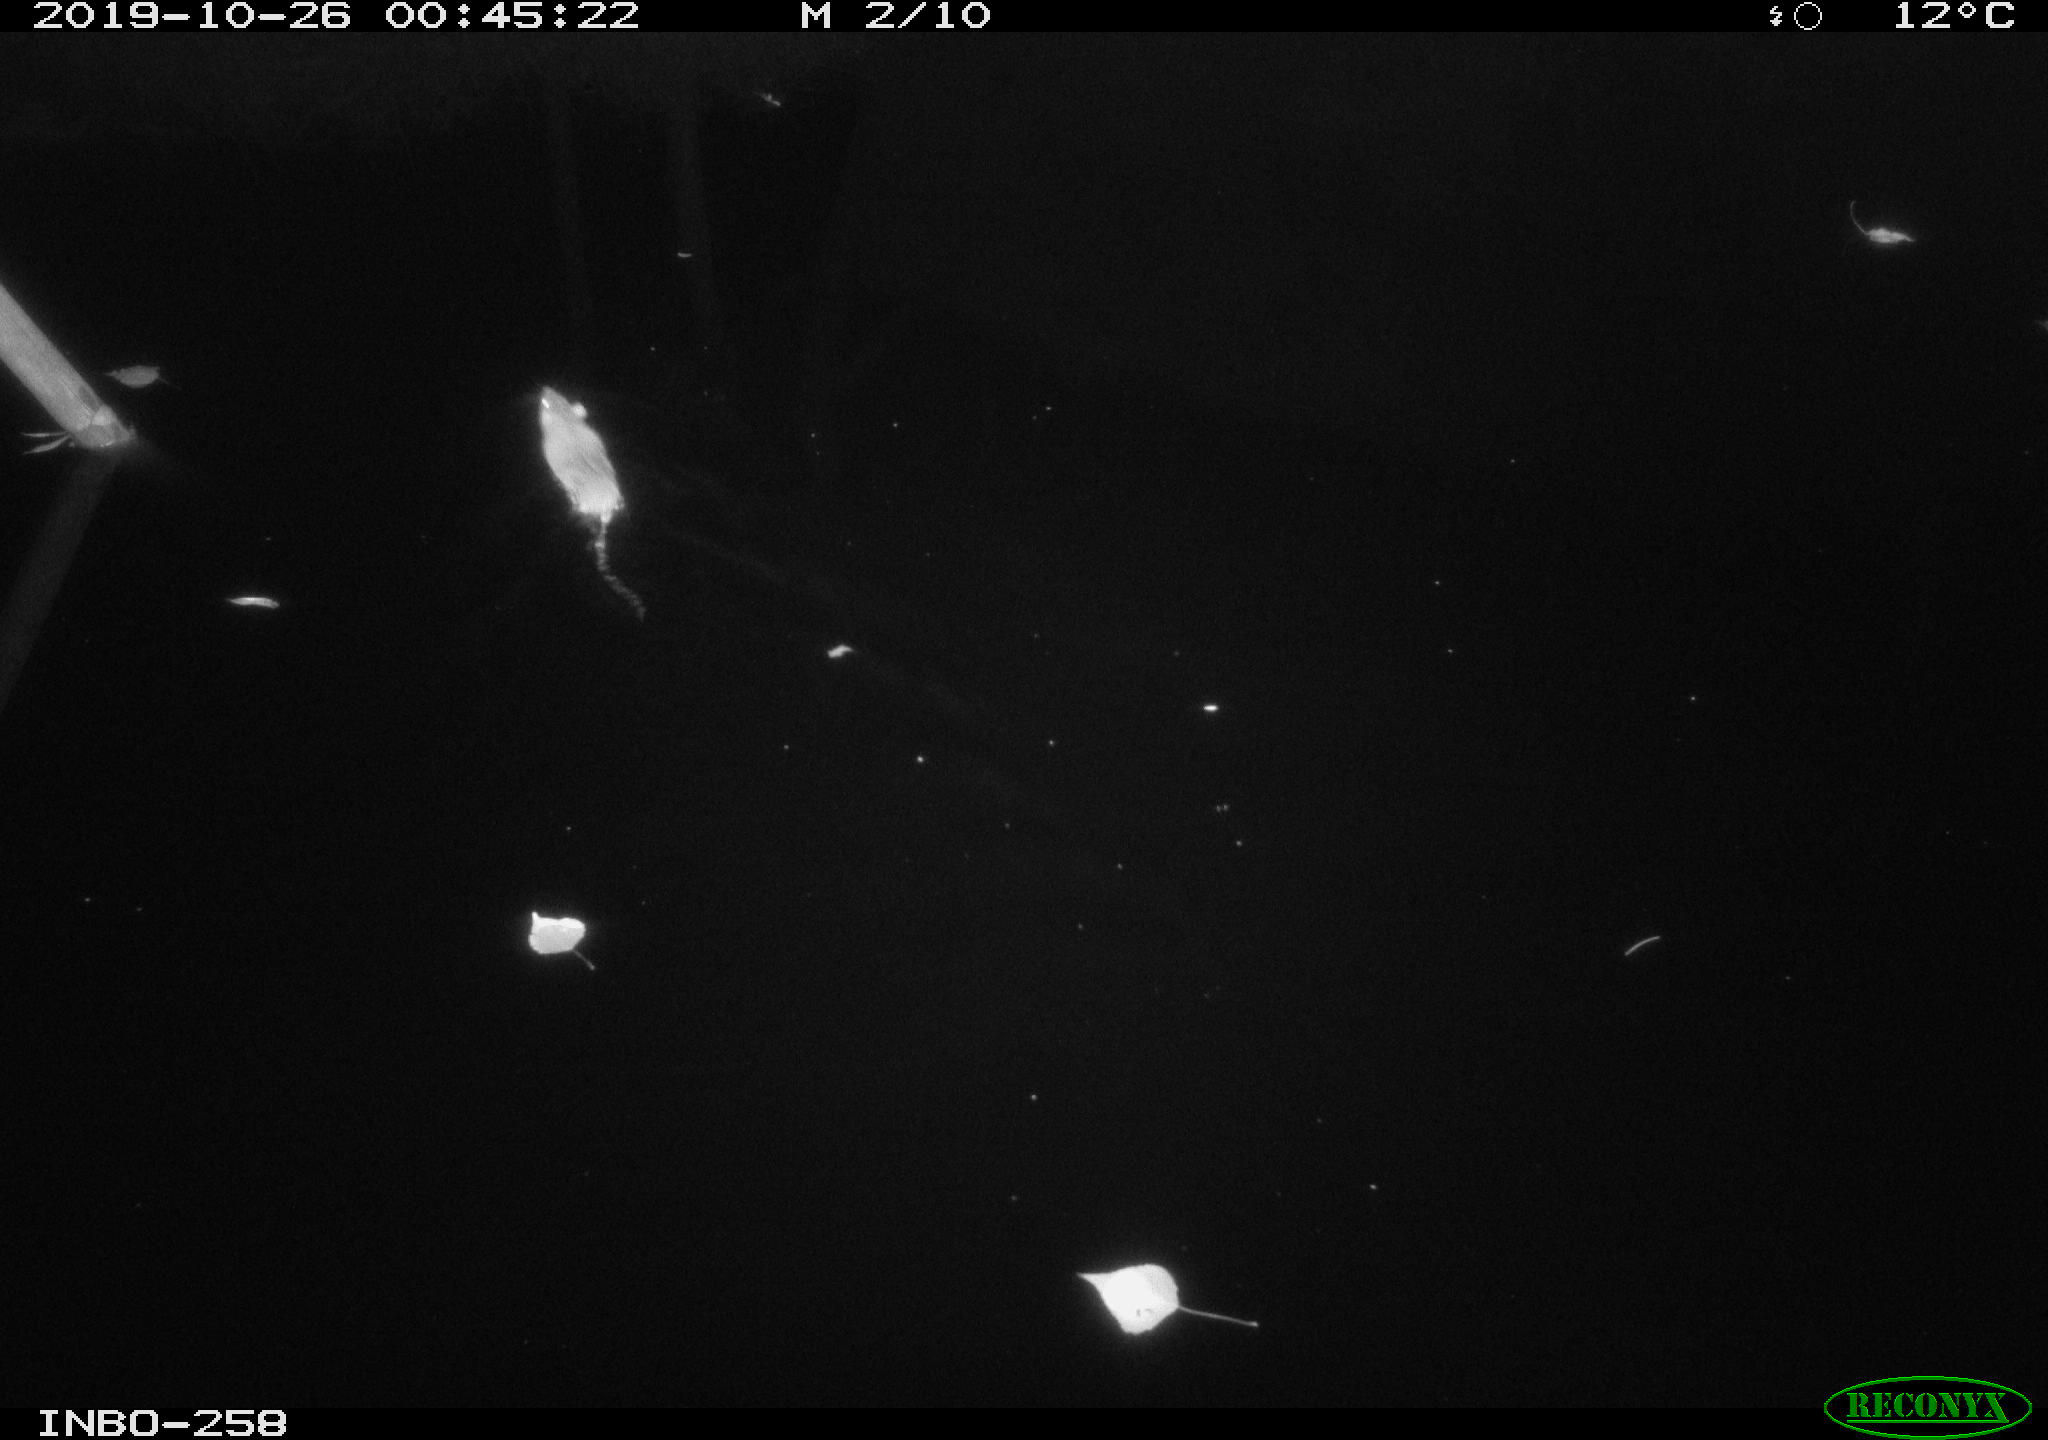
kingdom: Animalia
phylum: Chordata
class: Mammalia
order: Rodentia
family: Muridae
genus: Rattus
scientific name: Rattus norvegicus
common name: Brown rat
